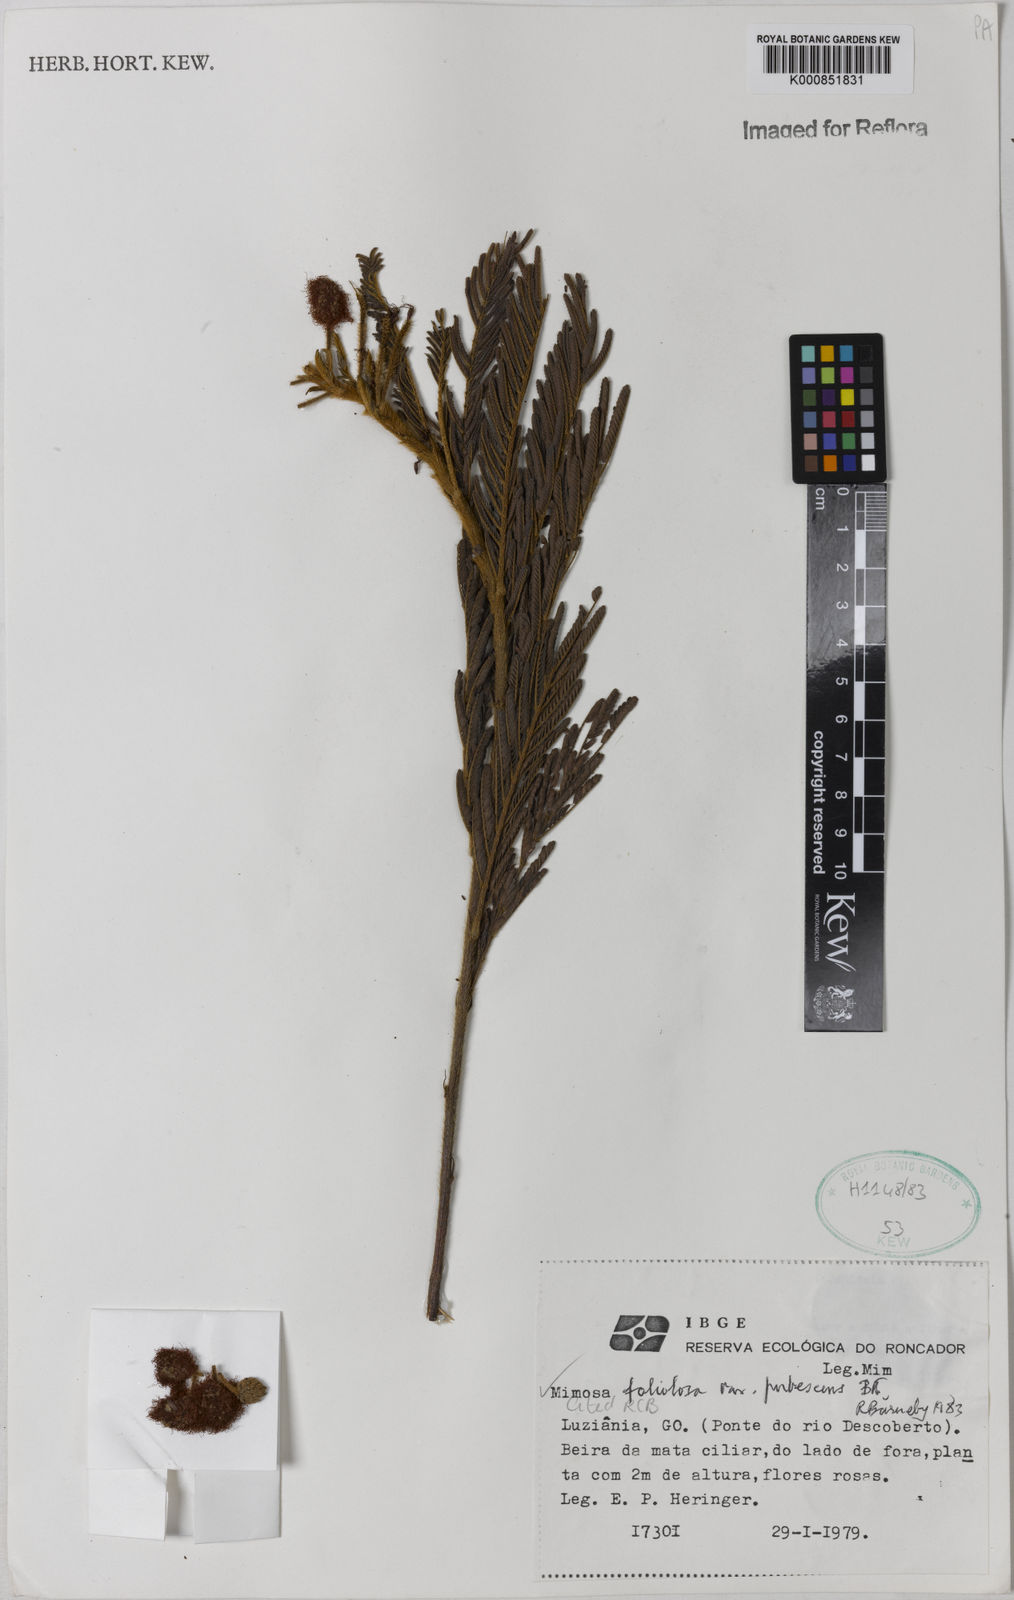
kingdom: Plantae
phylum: Tracheophyta
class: Magnoliopsida
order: Fabales
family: Fabaceae
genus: Mimosa
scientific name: Mimosa foliolosa
